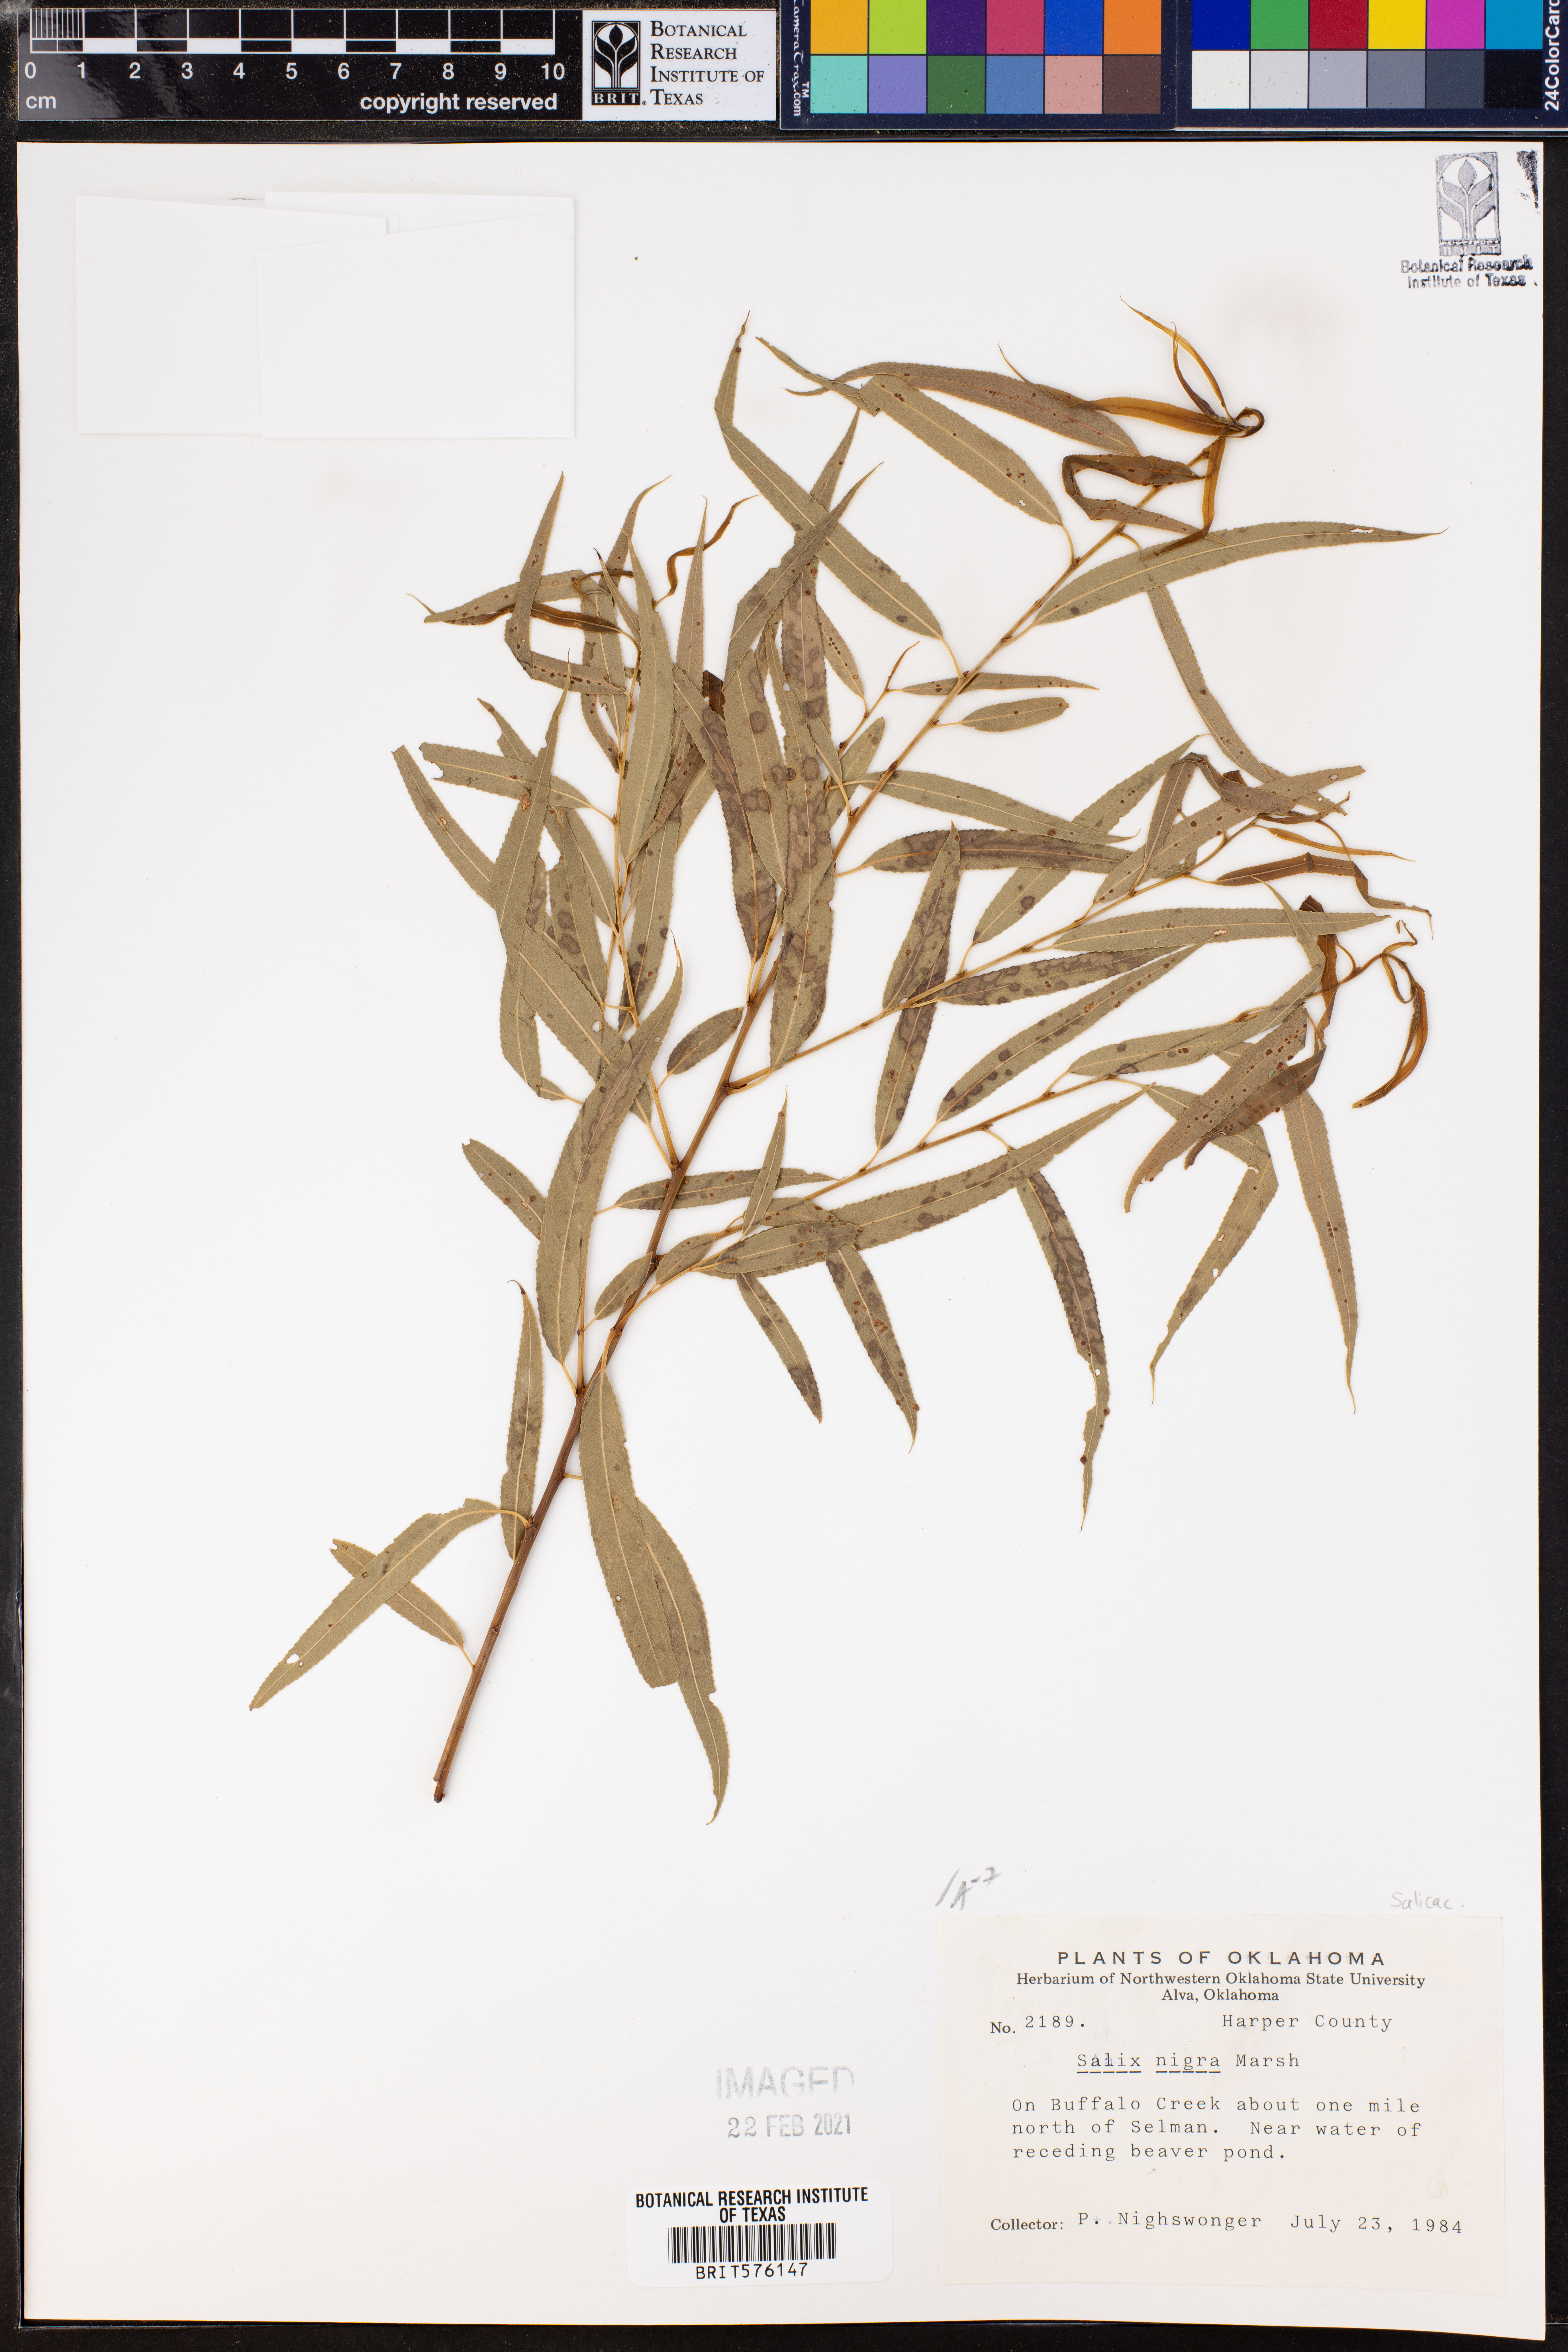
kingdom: Plantae
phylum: Tracheophyta
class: Magnoliopsida
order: Malpighiales
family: Salicaceae
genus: Salix
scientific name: Salix nigra
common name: Black willow
